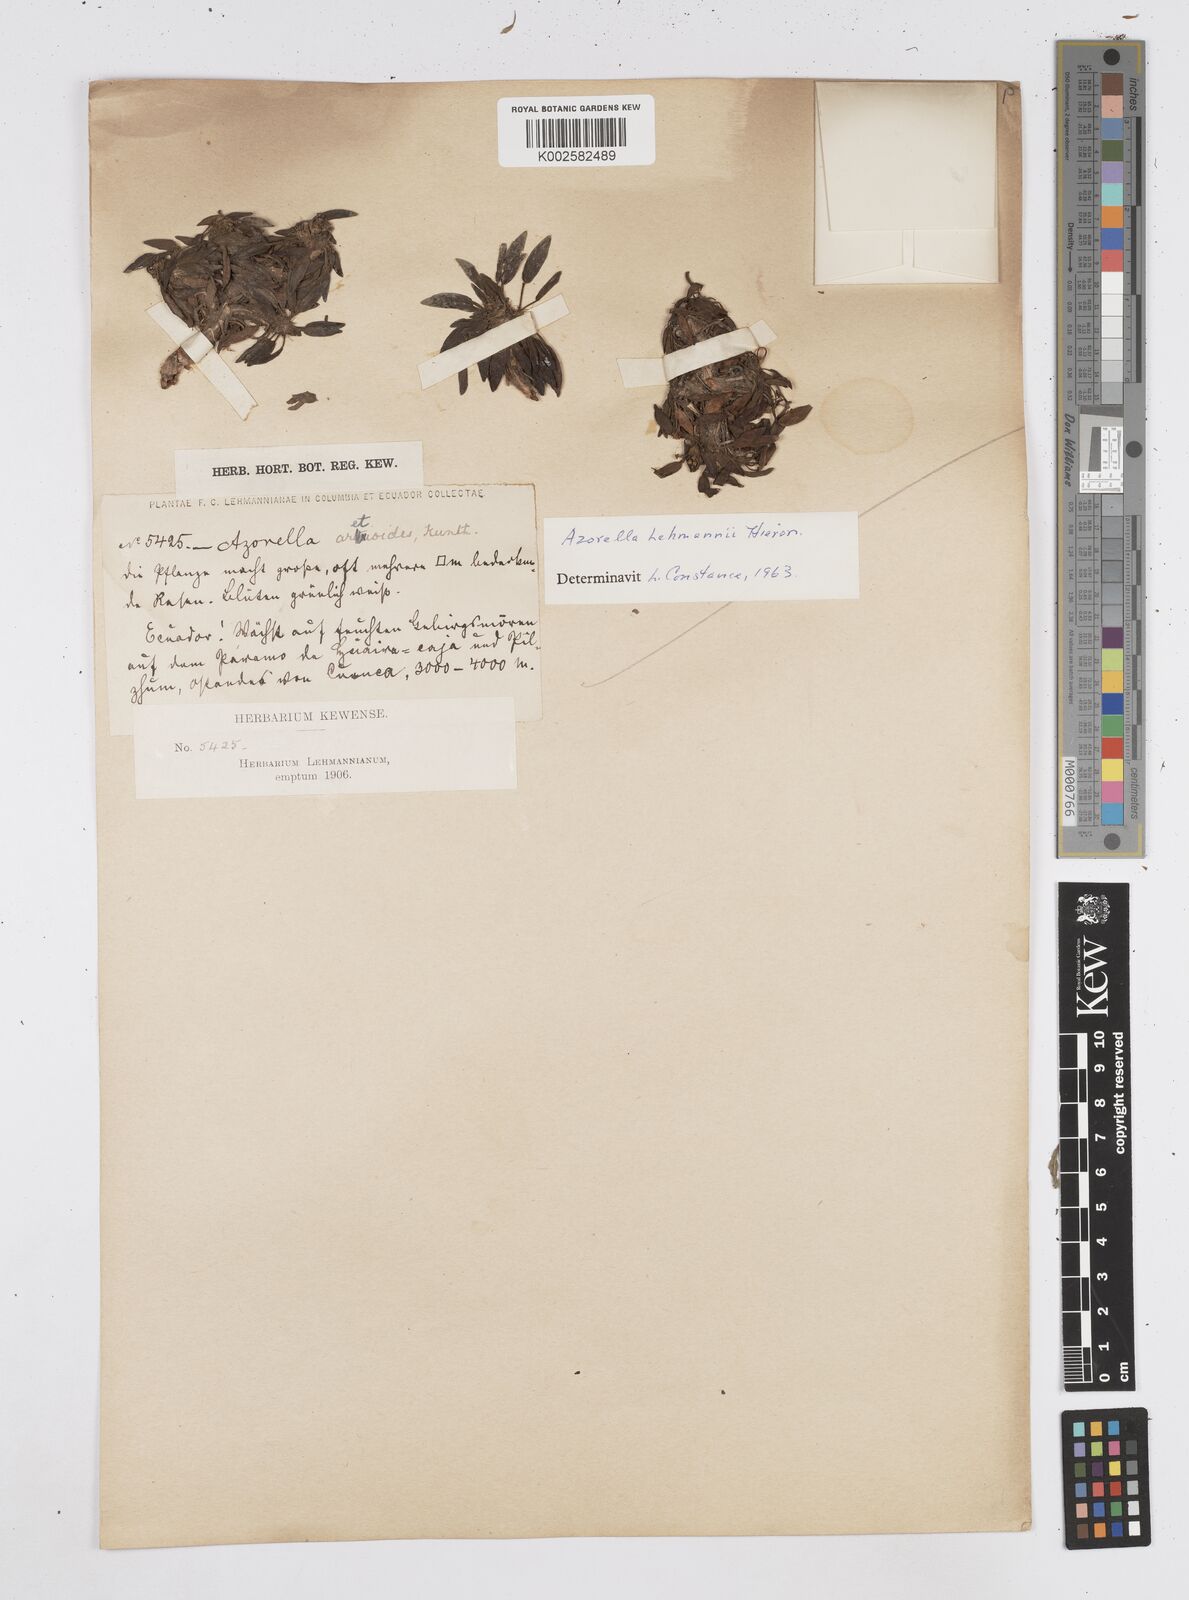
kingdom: Plantae
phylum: Tracheophyta
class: Magnoliopsida
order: Apiales
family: Apiaceae
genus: Azorella
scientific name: Azorella biloba
